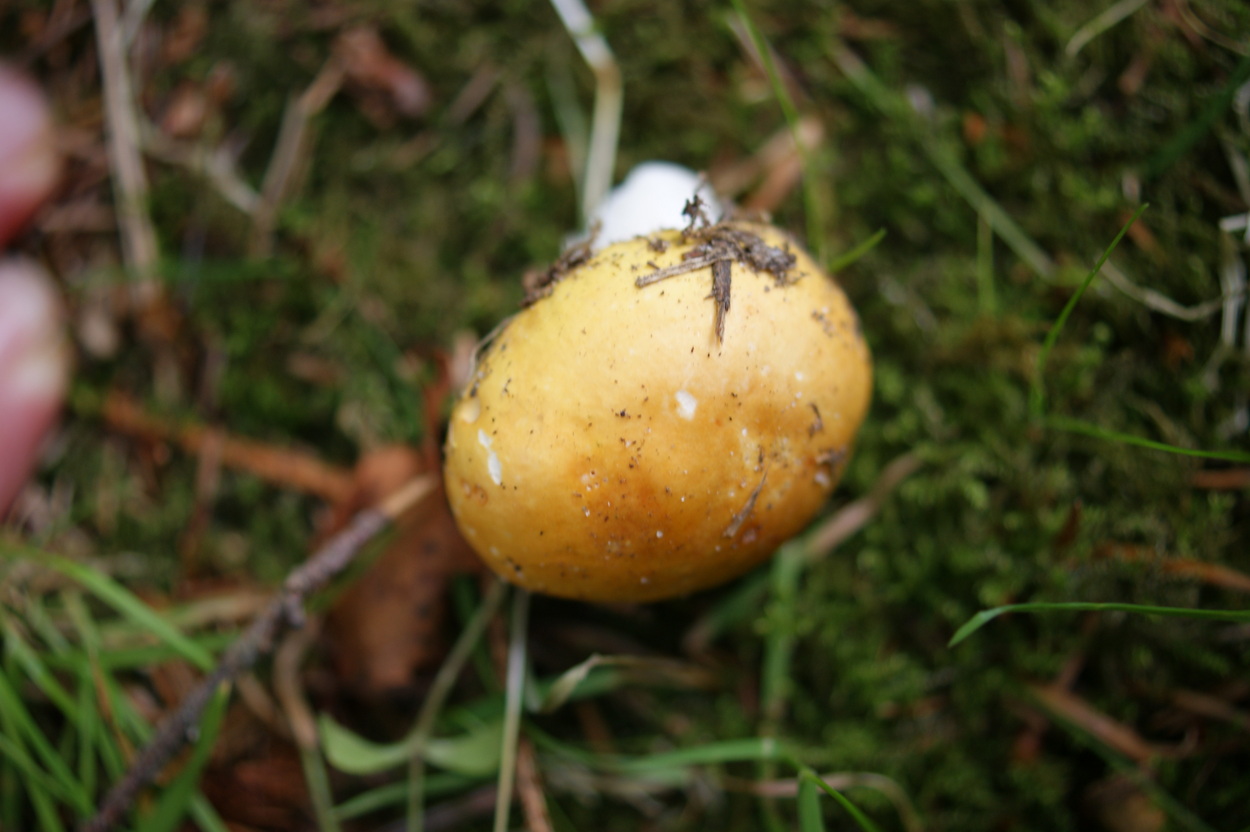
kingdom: Fungi
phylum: Basidiomycota
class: Agaricomycetes
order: Russulales
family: Russulaceae
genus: Russula
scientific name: Russula risigallina
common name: abrikos-skørhat
